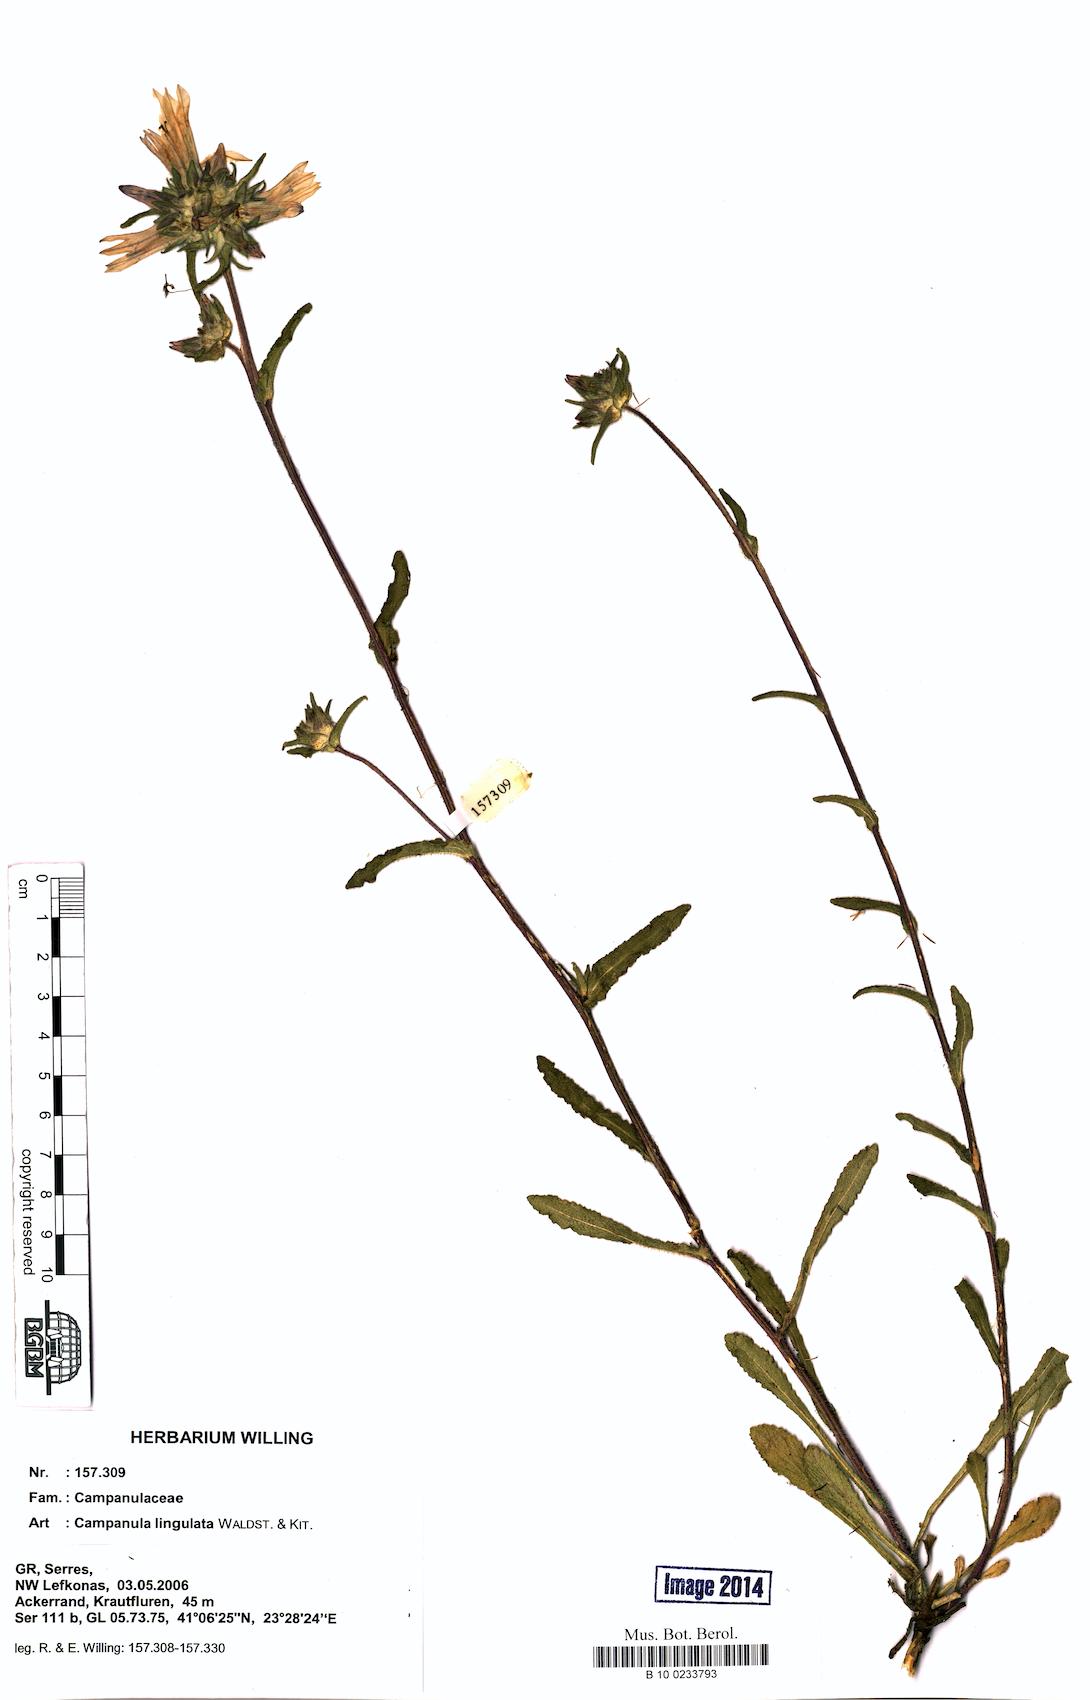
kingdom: Plantae
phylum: Tracheophyta
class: Magnoliopsida
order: Asterales
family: Campanulaceae
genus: Campanula
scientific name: Campanula lingulata
